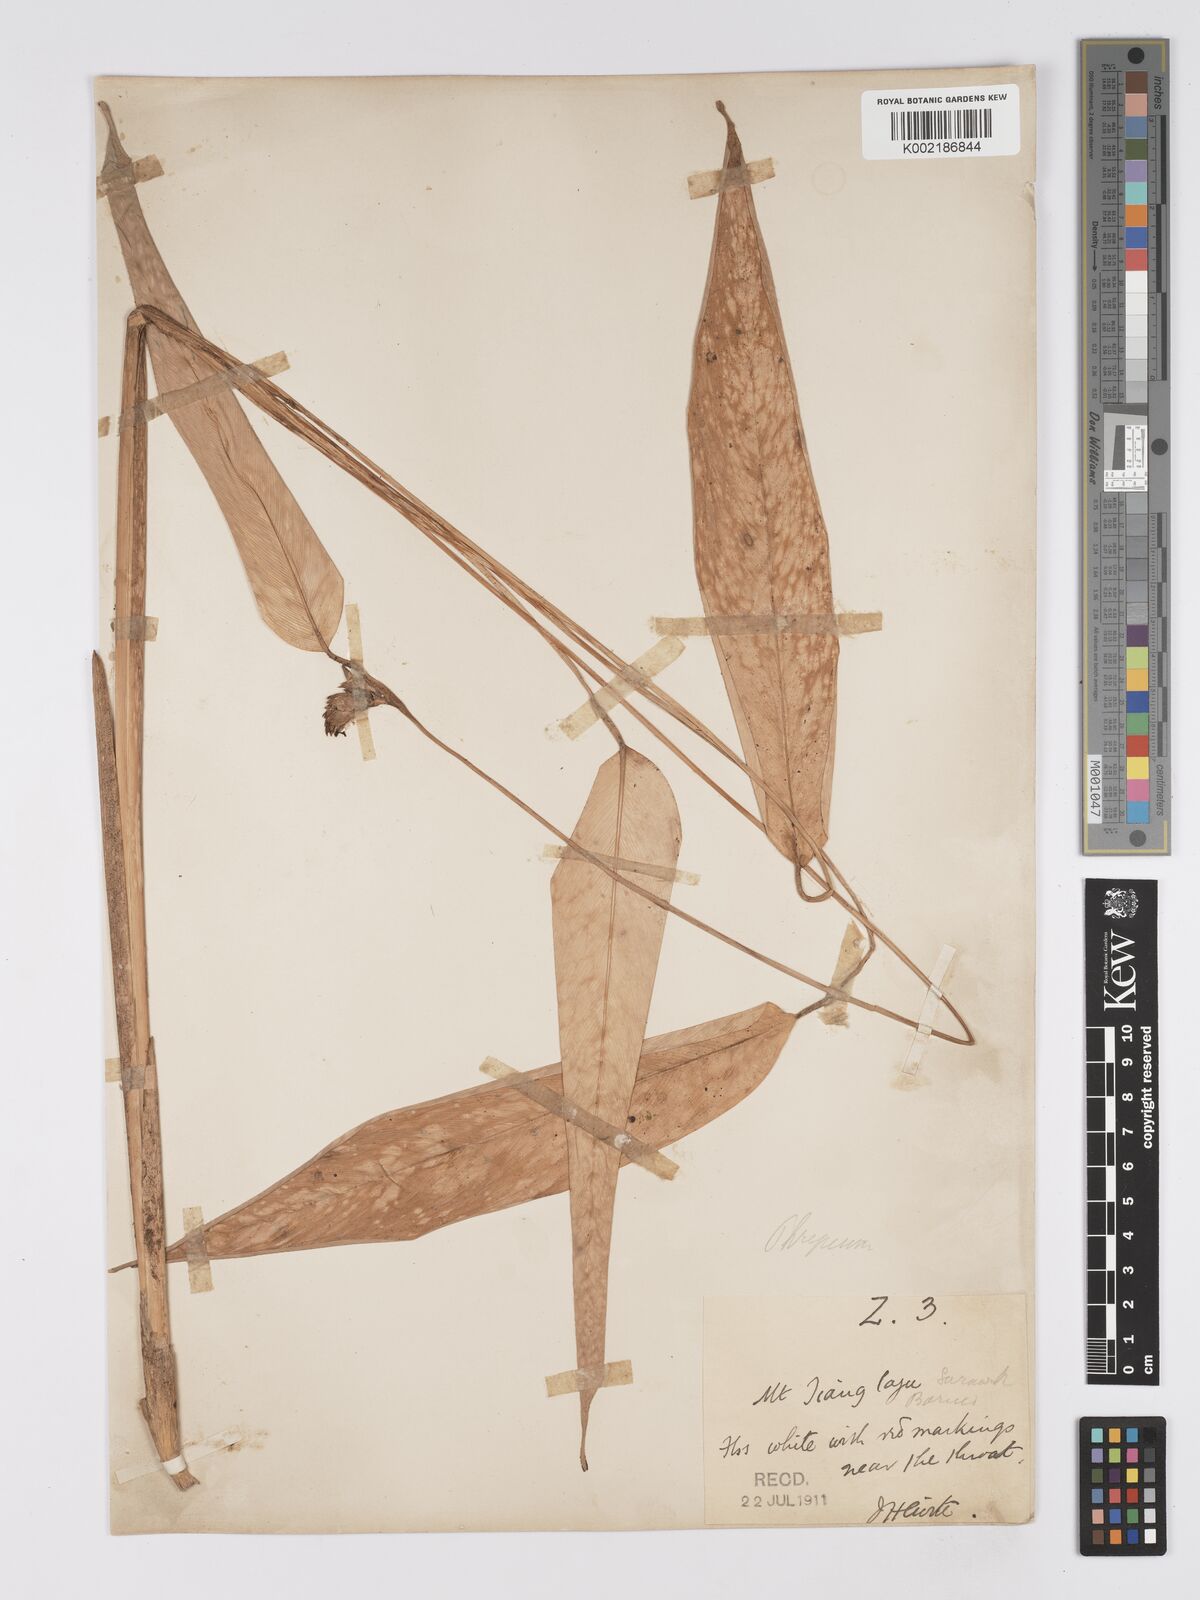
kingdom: Plantae
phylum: Tracheophyta
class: Liliopsida
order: Zingiberales
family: Marantaceae
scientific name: Marantaceae
